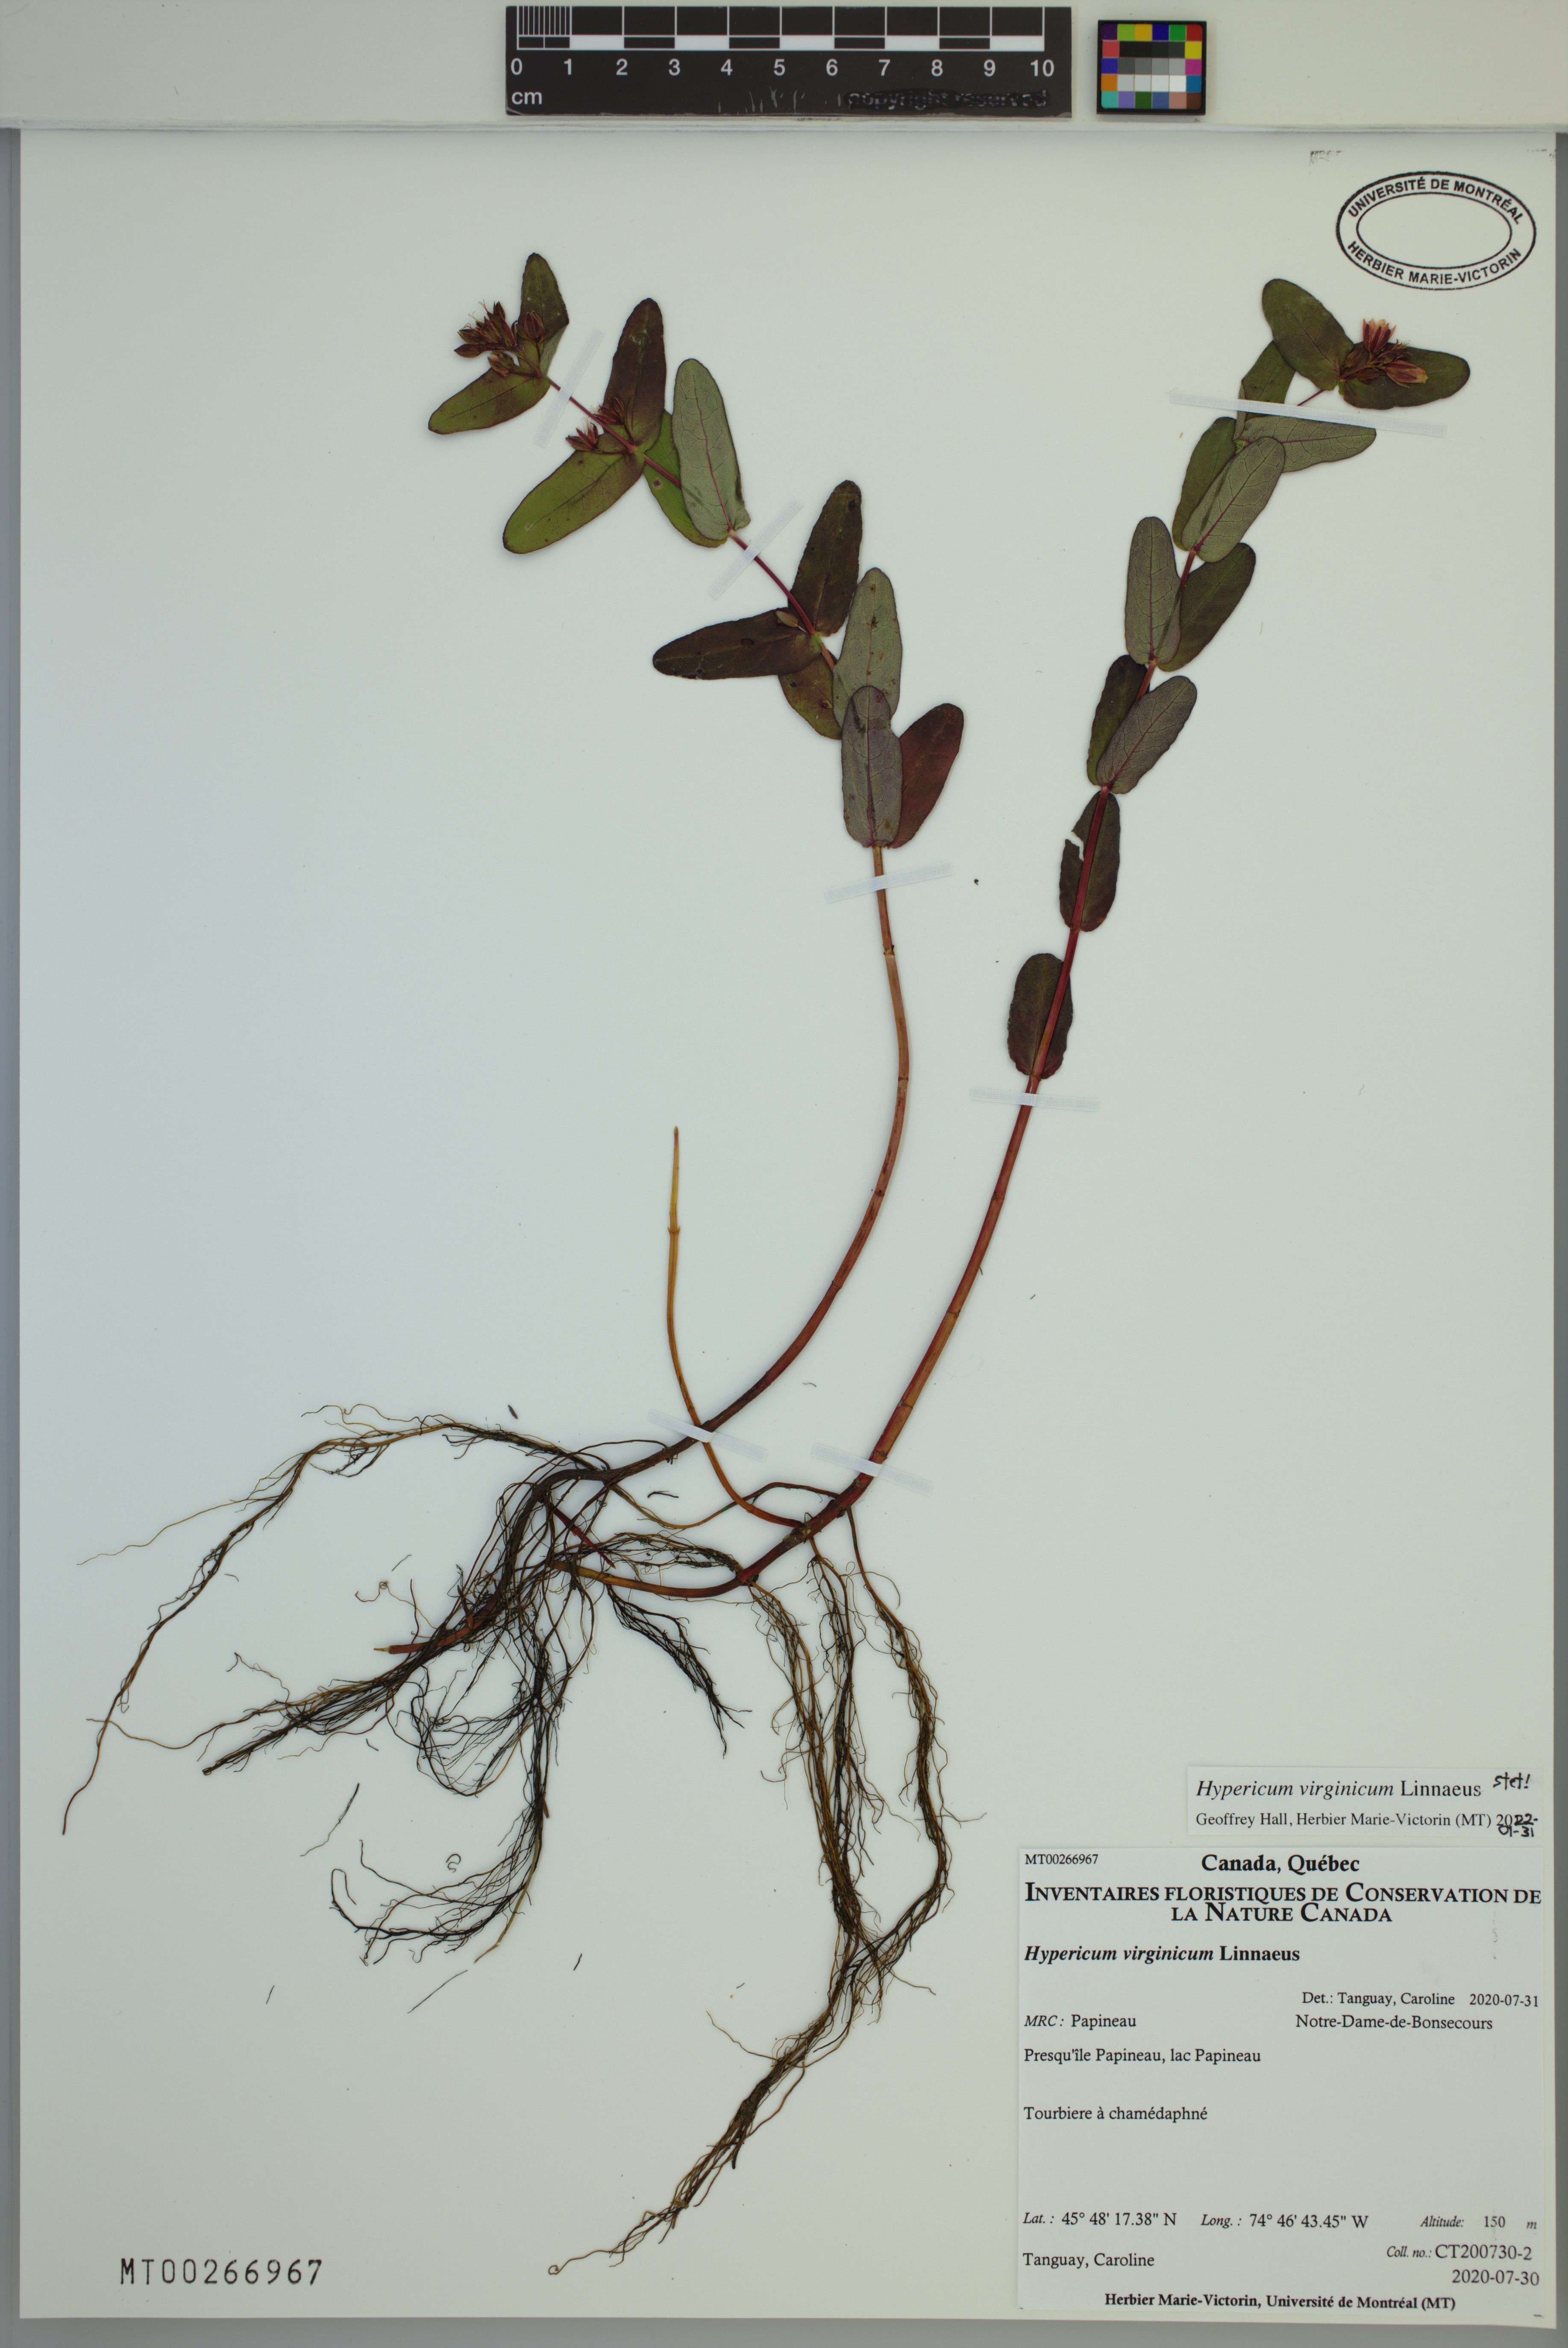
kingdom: Plantae
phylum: Tracheophyta
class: Magnoliopsida
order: Malpighiales
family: Hypericaceae
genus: Triadenum
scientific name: Triadenum virginicum
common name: Marsh st. john's-wort
